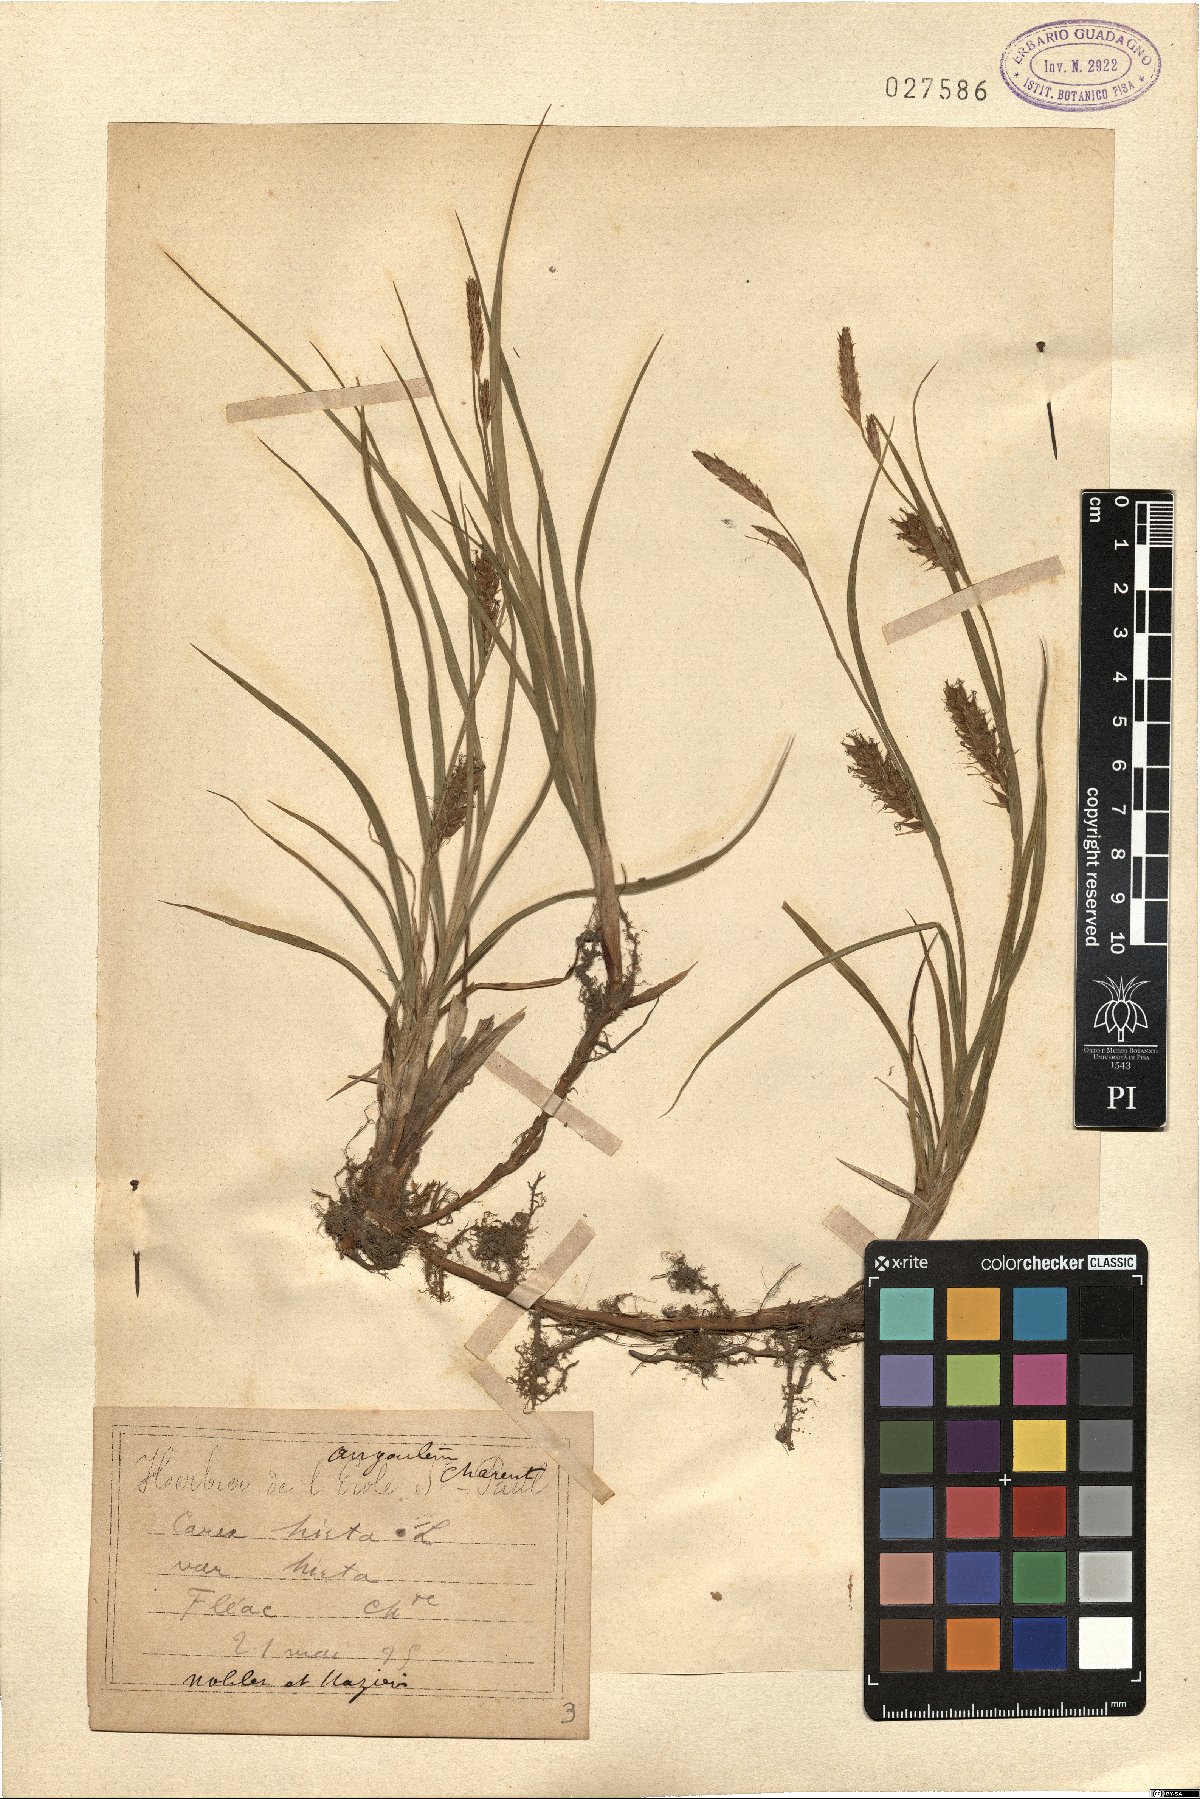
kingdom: Plantae
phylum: Tracheophyta
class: Liliopsida
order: Poales
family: Cyperaceae
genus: Carex
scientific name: Carex hirta
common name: Hairy sedge
